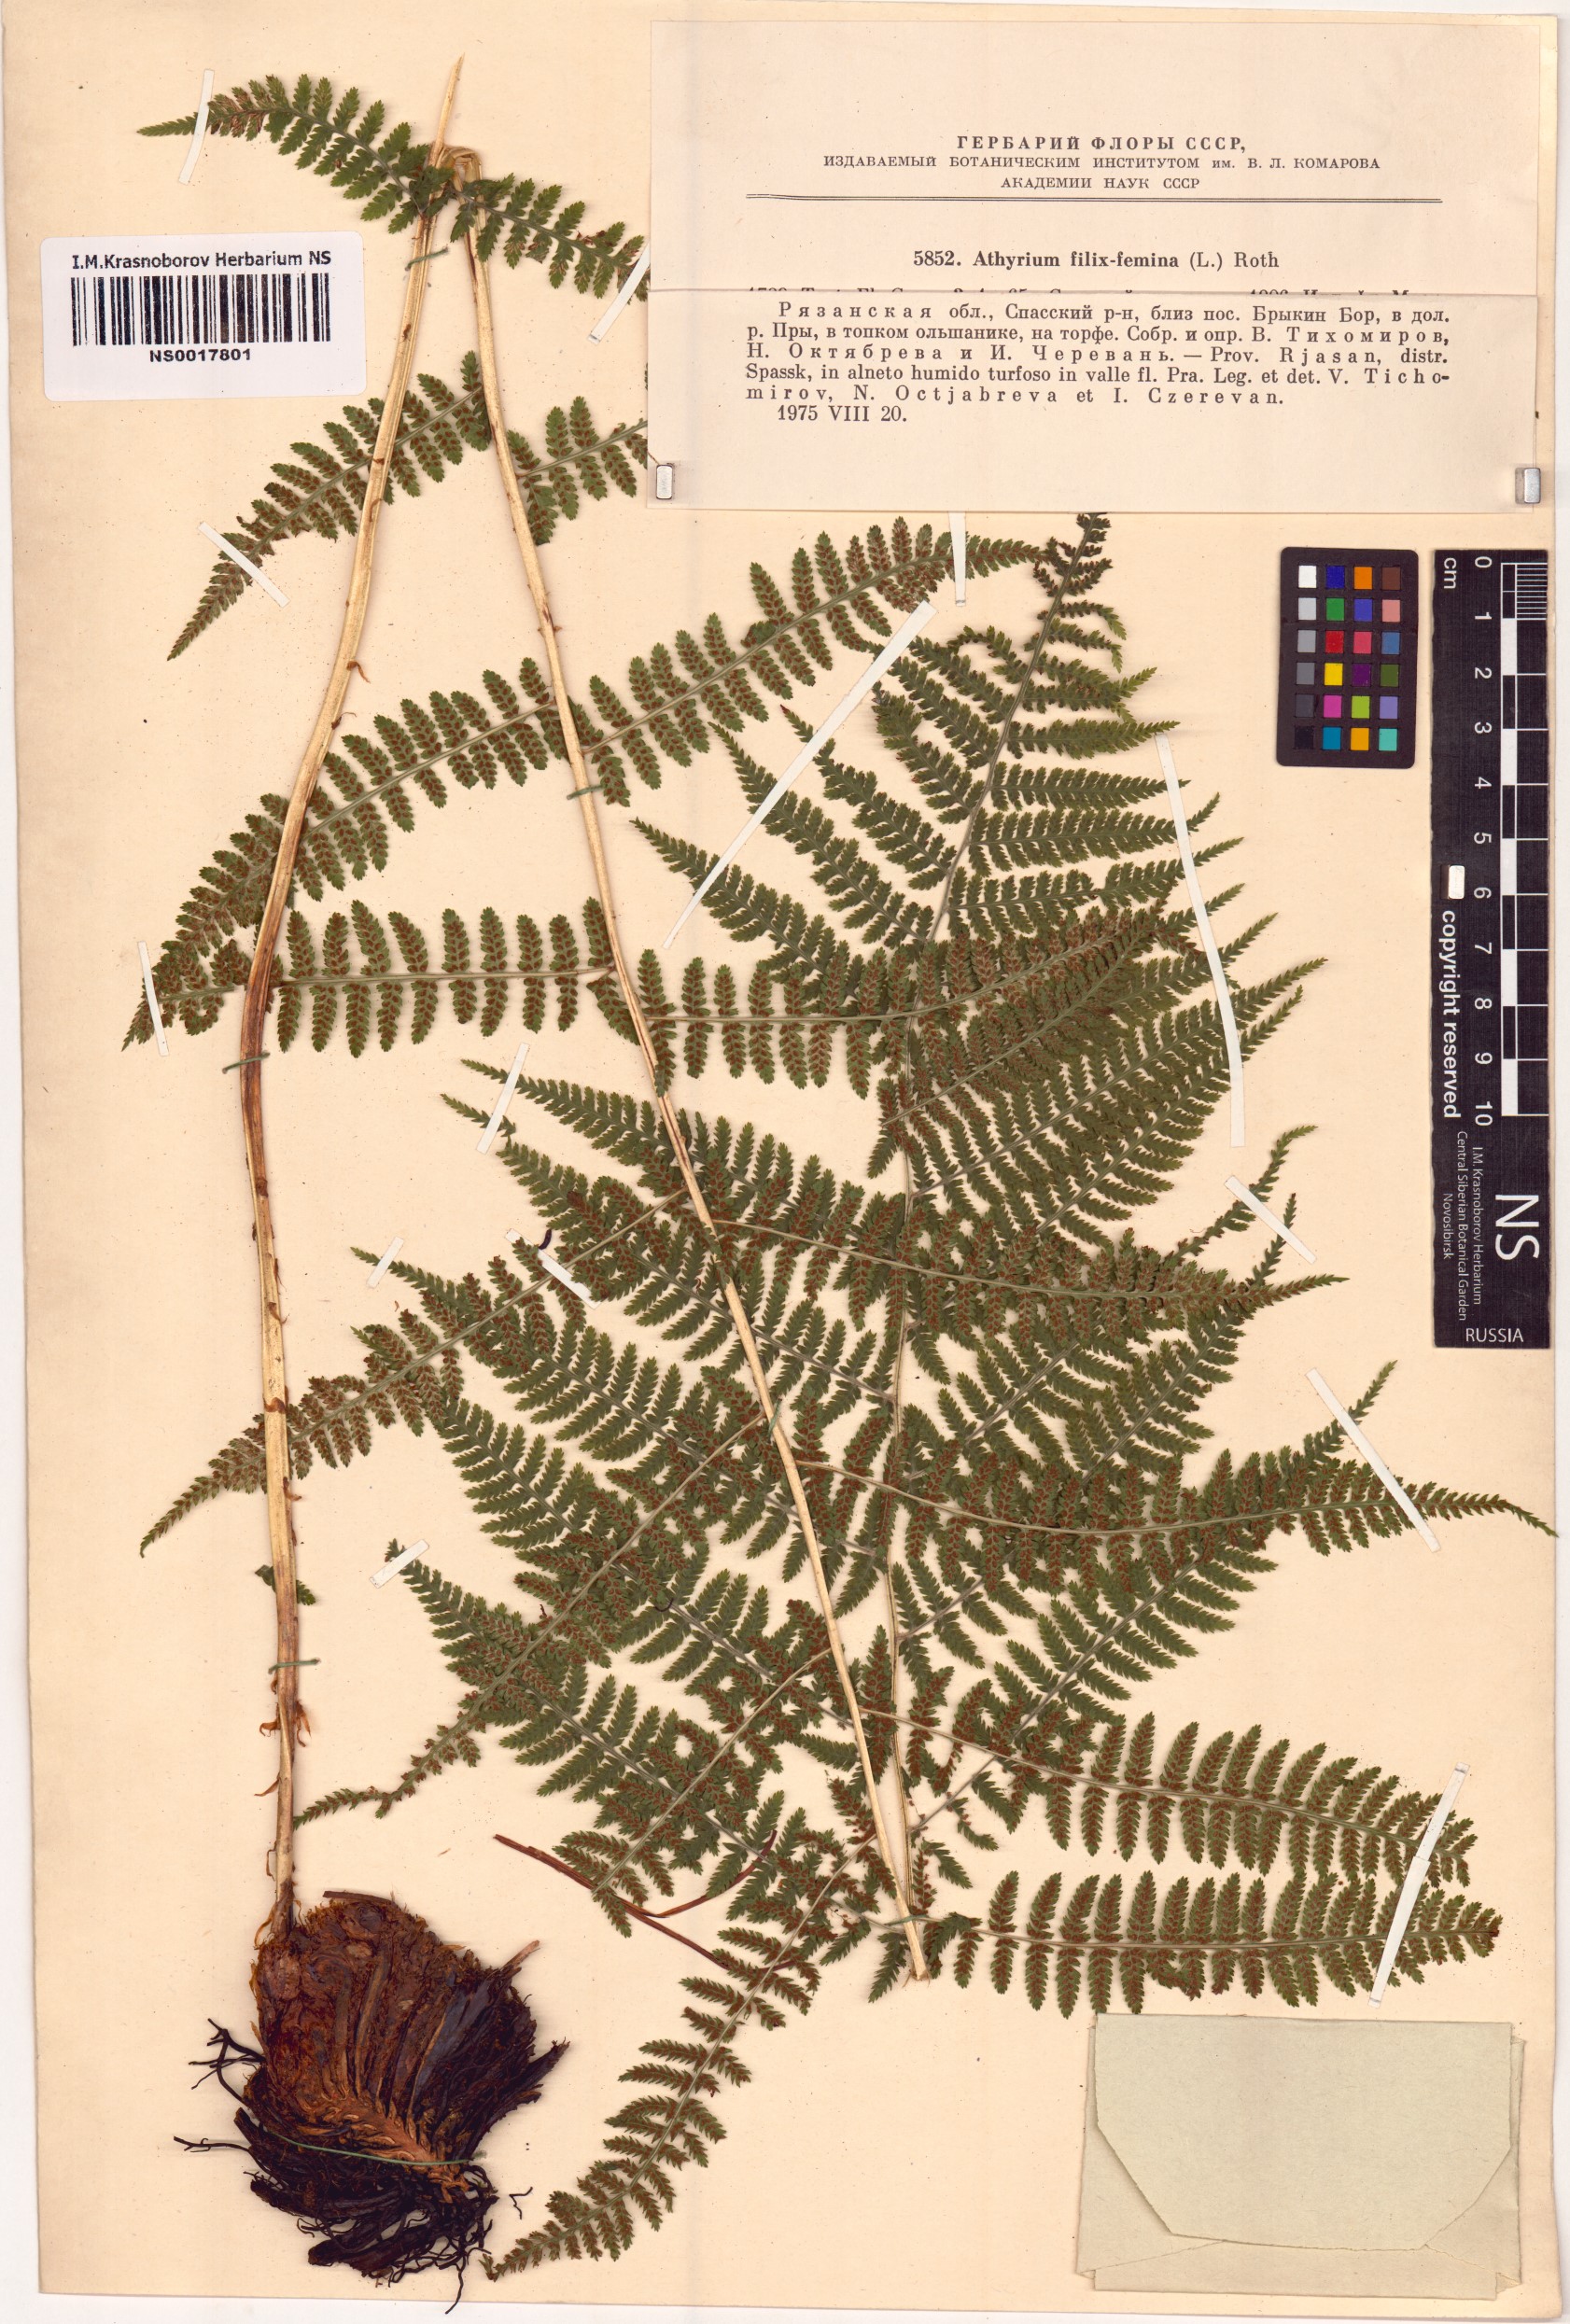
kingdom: Plantae
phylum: Tracheophyta
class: Polypodiopsida
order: Polypodiales
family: Athyriaceae
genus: Athyrium
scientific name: Athyrium filix-femina
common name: Lady fern
